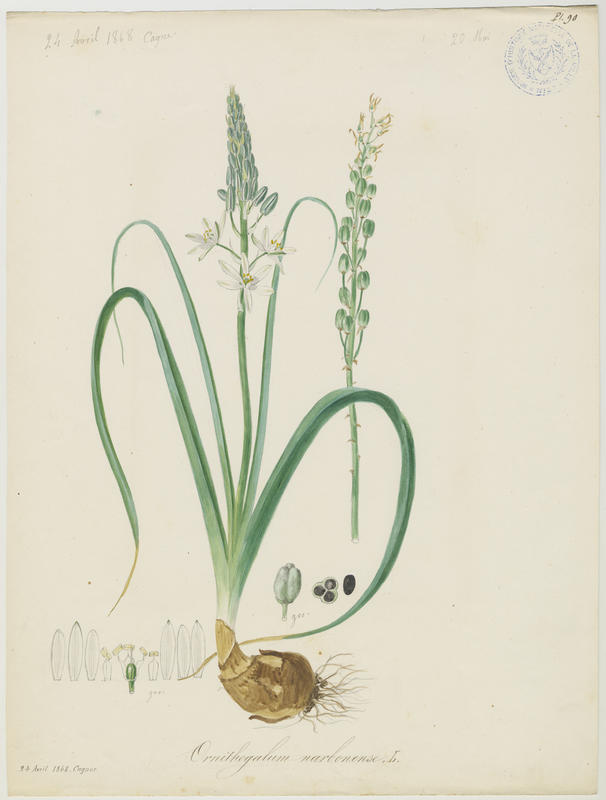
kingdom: Plantae
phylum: Tracheophyta
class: Liliopsida
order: Asparagales
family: Asparagaceae
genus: Ornithogalum
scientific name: Ornithogalum narbonense
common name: Bath-asparagus
